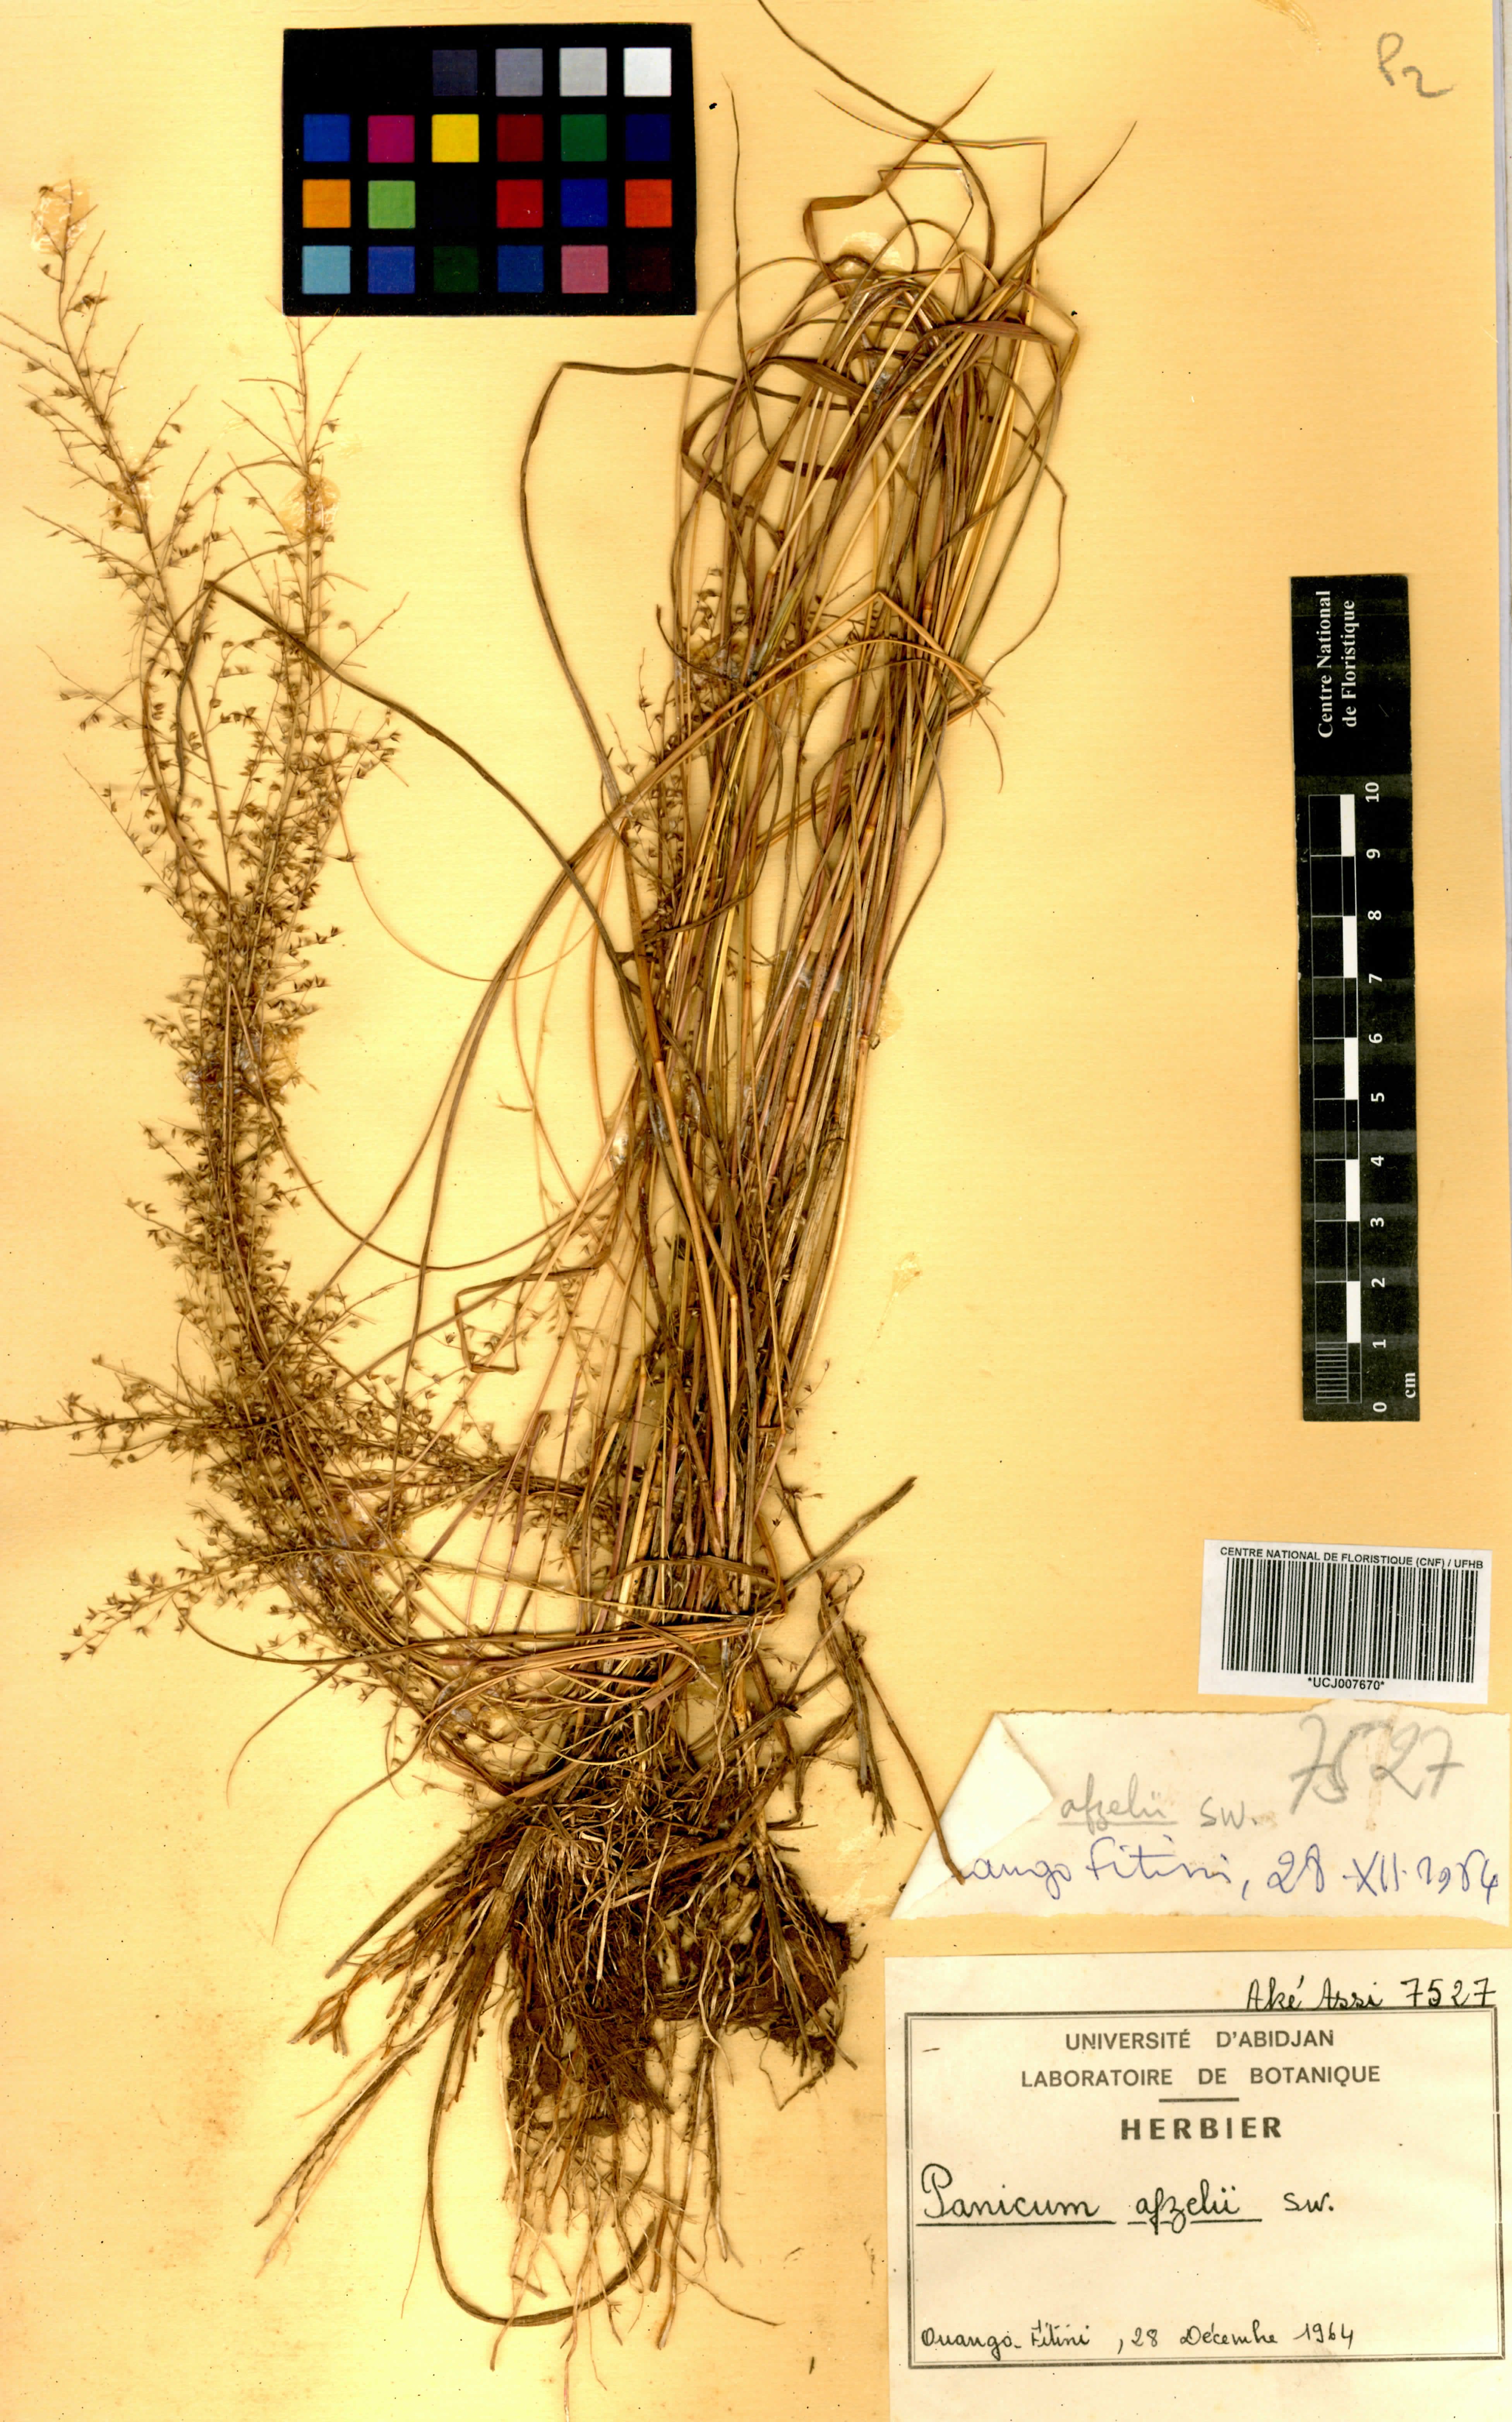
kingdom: Plantae
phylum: Tracheophyta
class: Liliopsida
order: Poales
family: Poaceae
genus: Panicum
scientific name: Panicum afzelii
